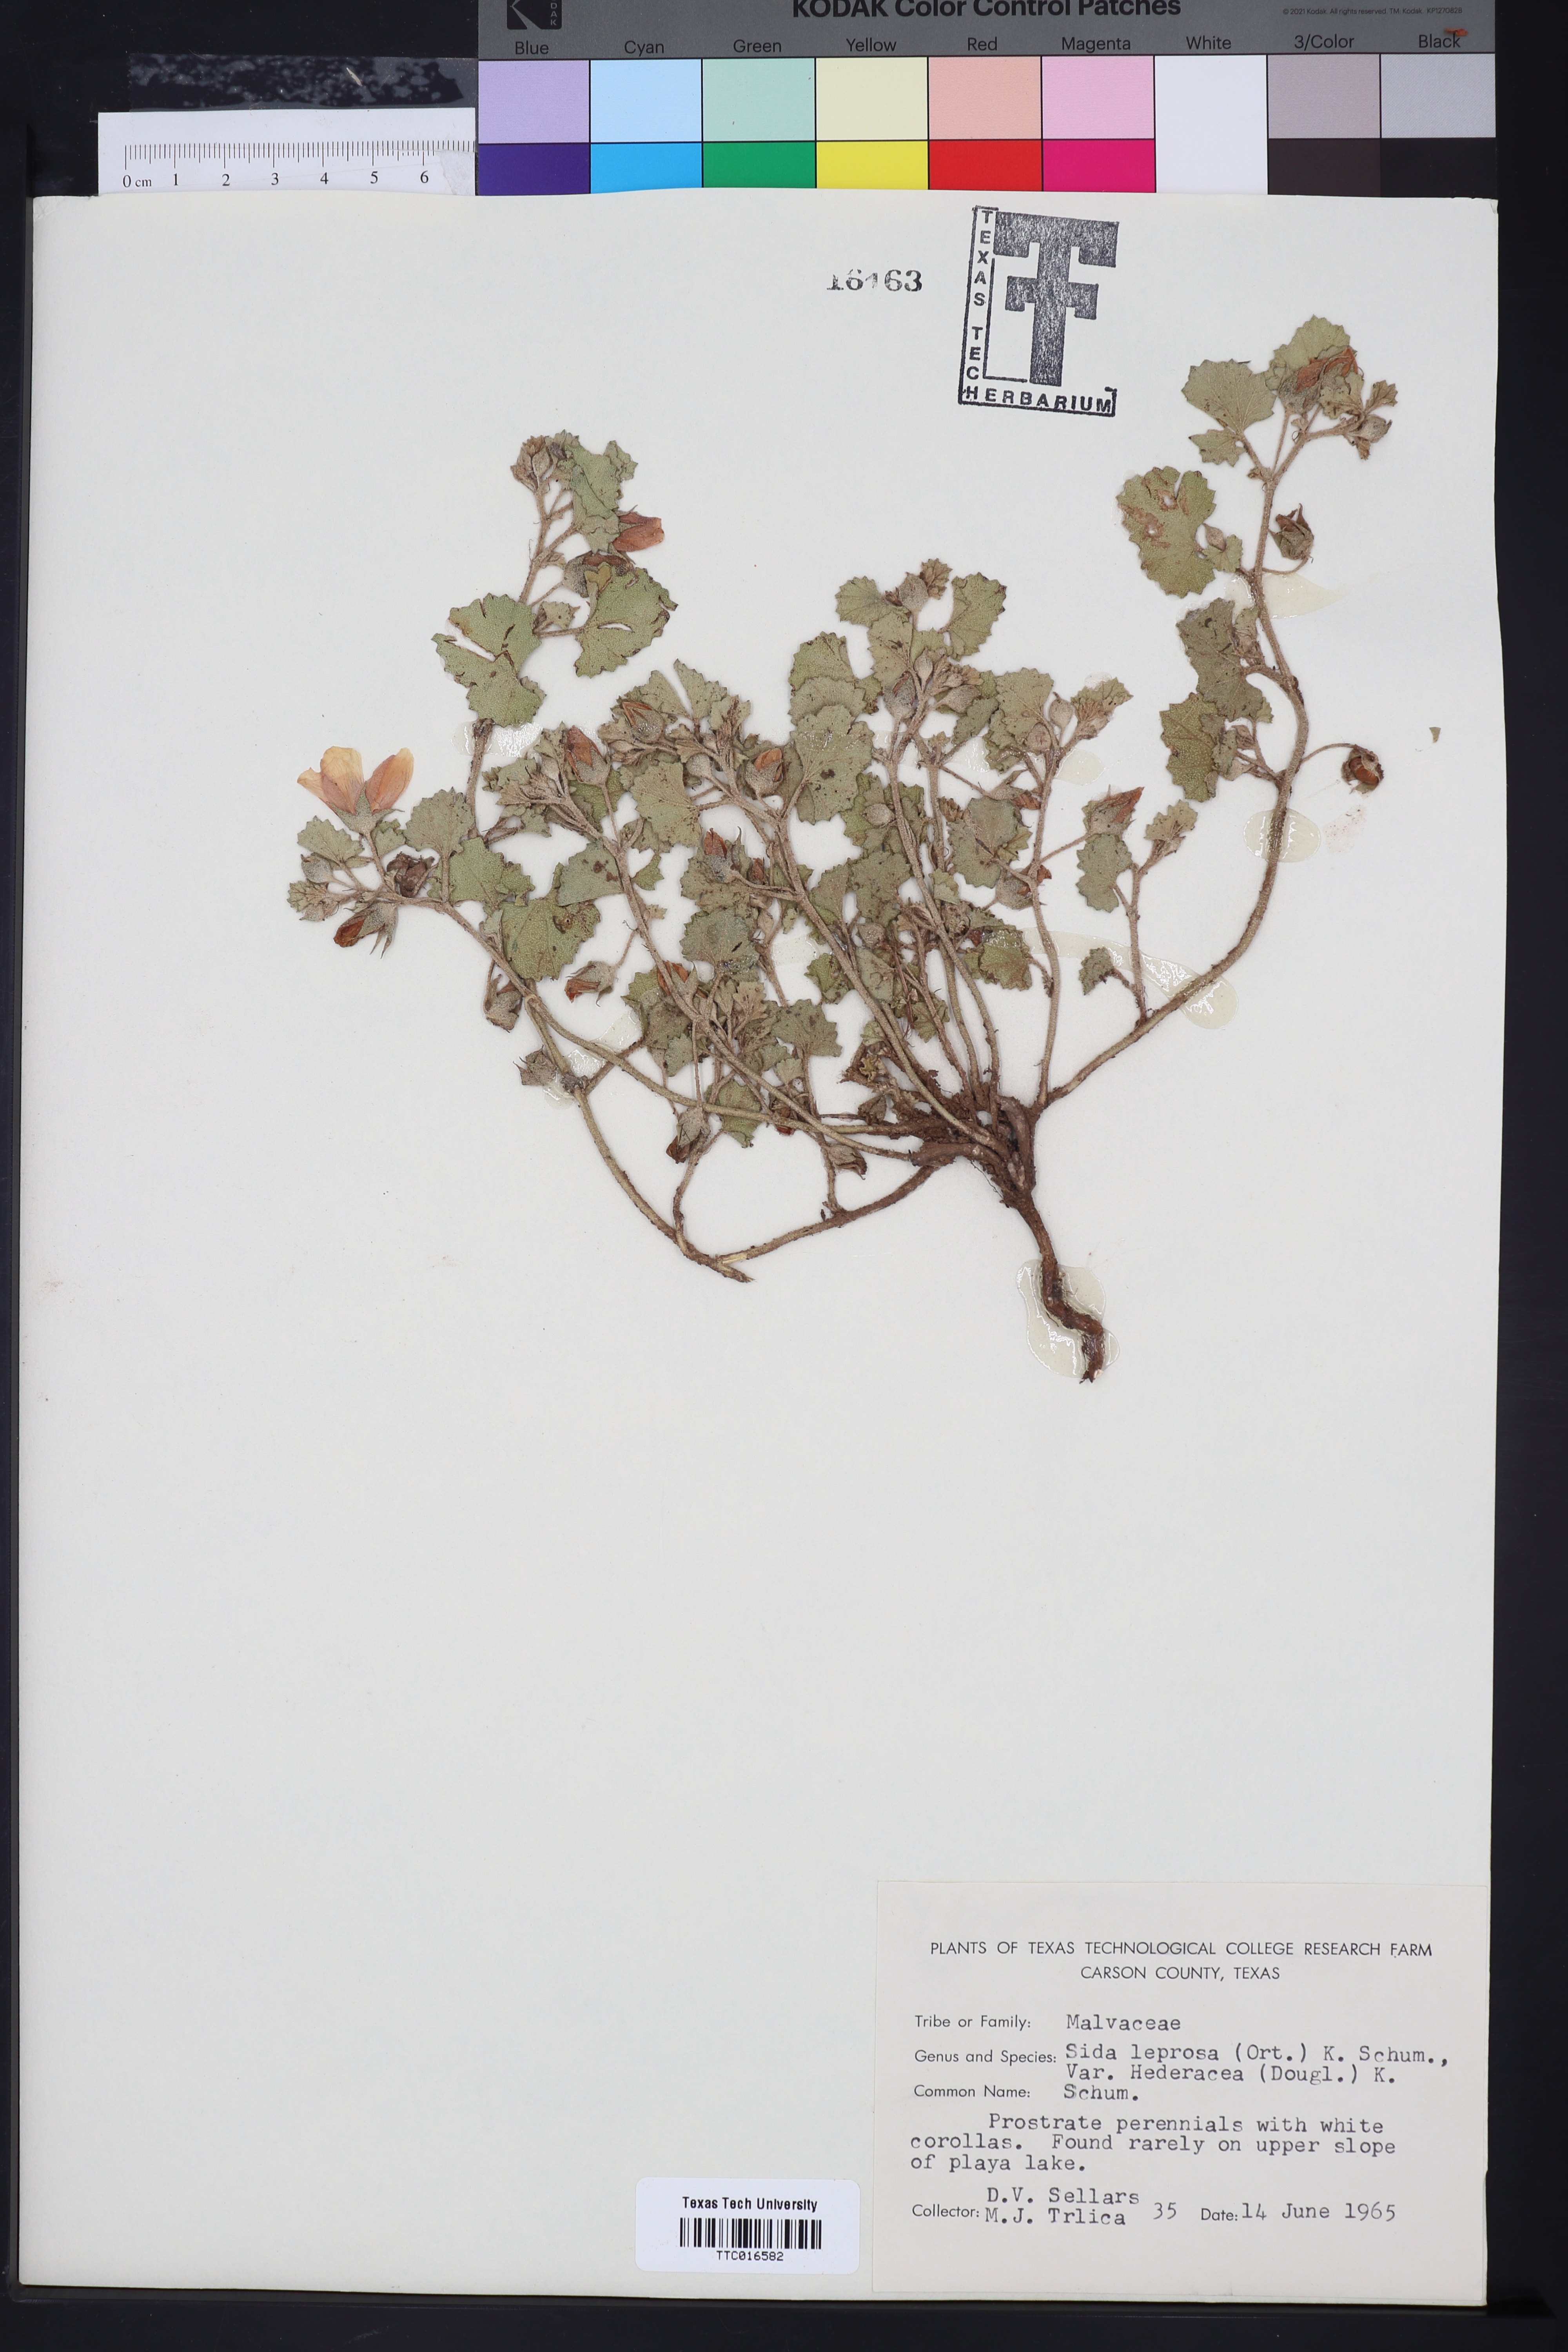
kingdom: Plantae
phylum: Tracheophyta
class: Magnoliopsida
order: Malvales
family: Malvaceae
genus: Malvella
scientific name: Malvella leprosa
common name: Alkali-mallow
